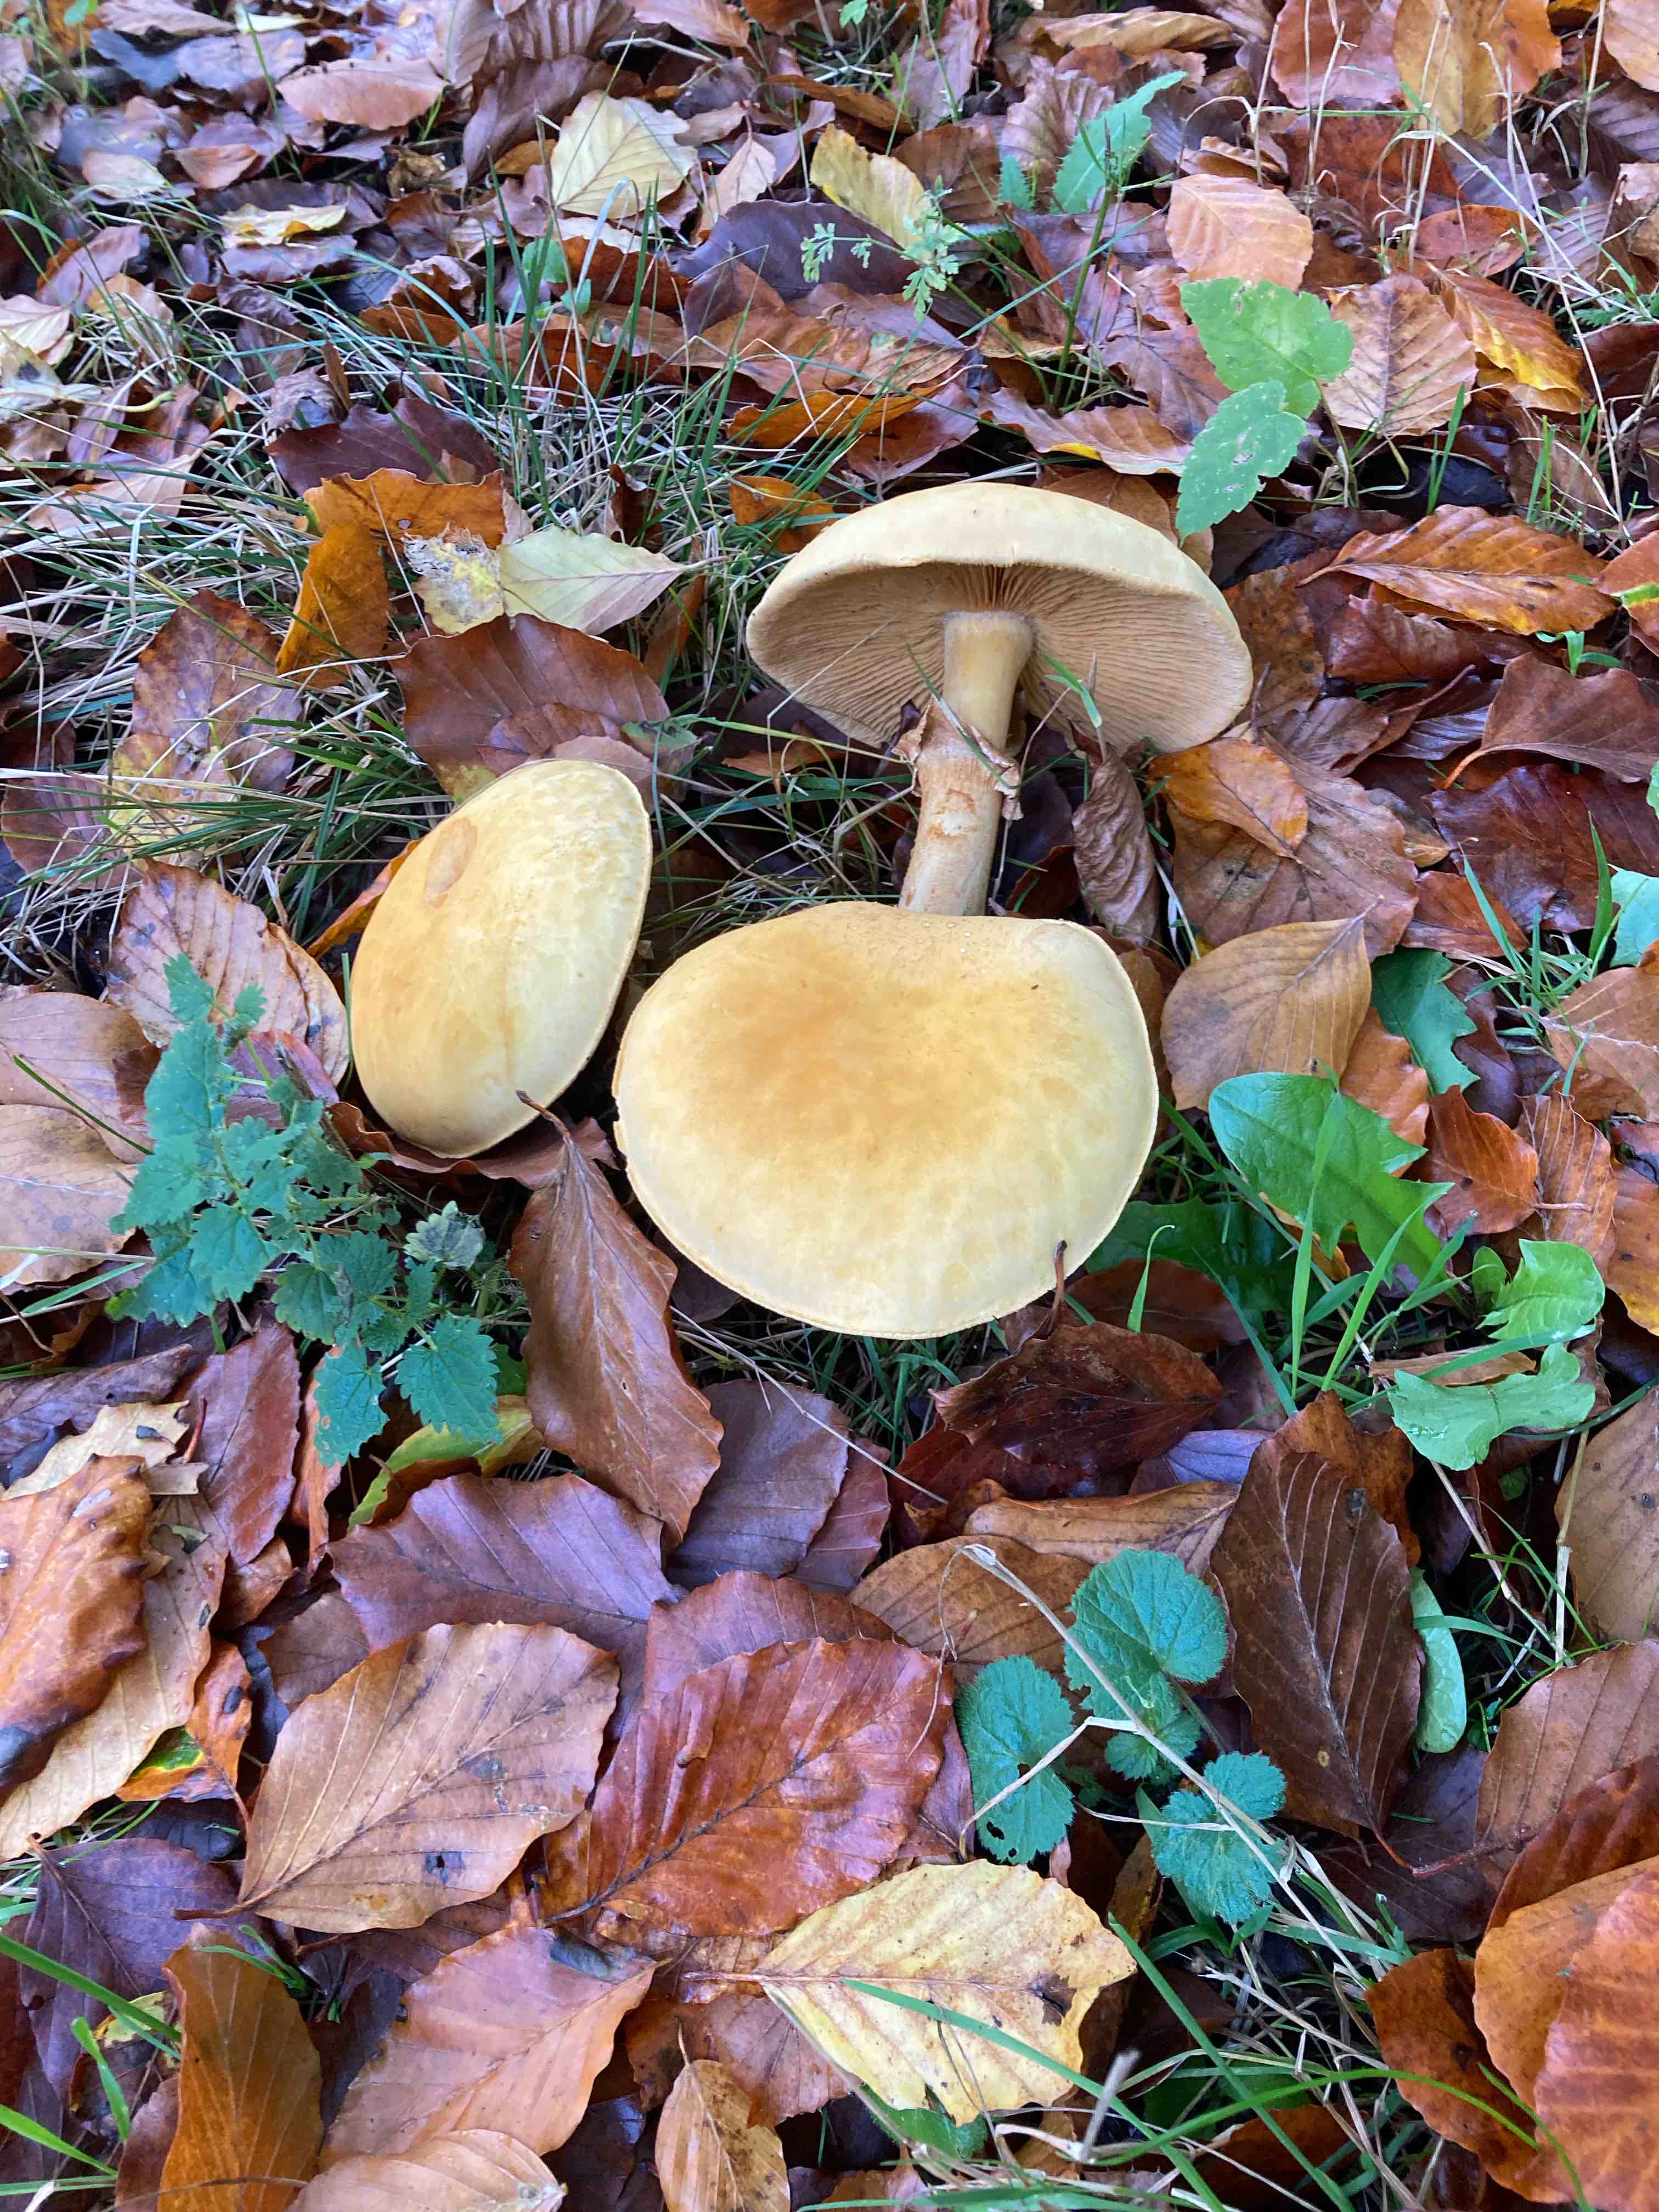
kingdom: Fungi
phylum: Basidiomycota
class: Agaricomycetes
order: Agaricales
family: Tricholomataceae
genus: Phaeolepiota
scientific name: Phaeolepiota aurea
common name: gyldenhat
